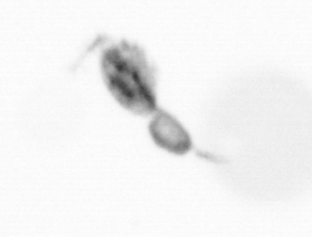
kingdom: Animalia
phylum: Arthropoda
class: Copepoda
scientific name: Copepoda
